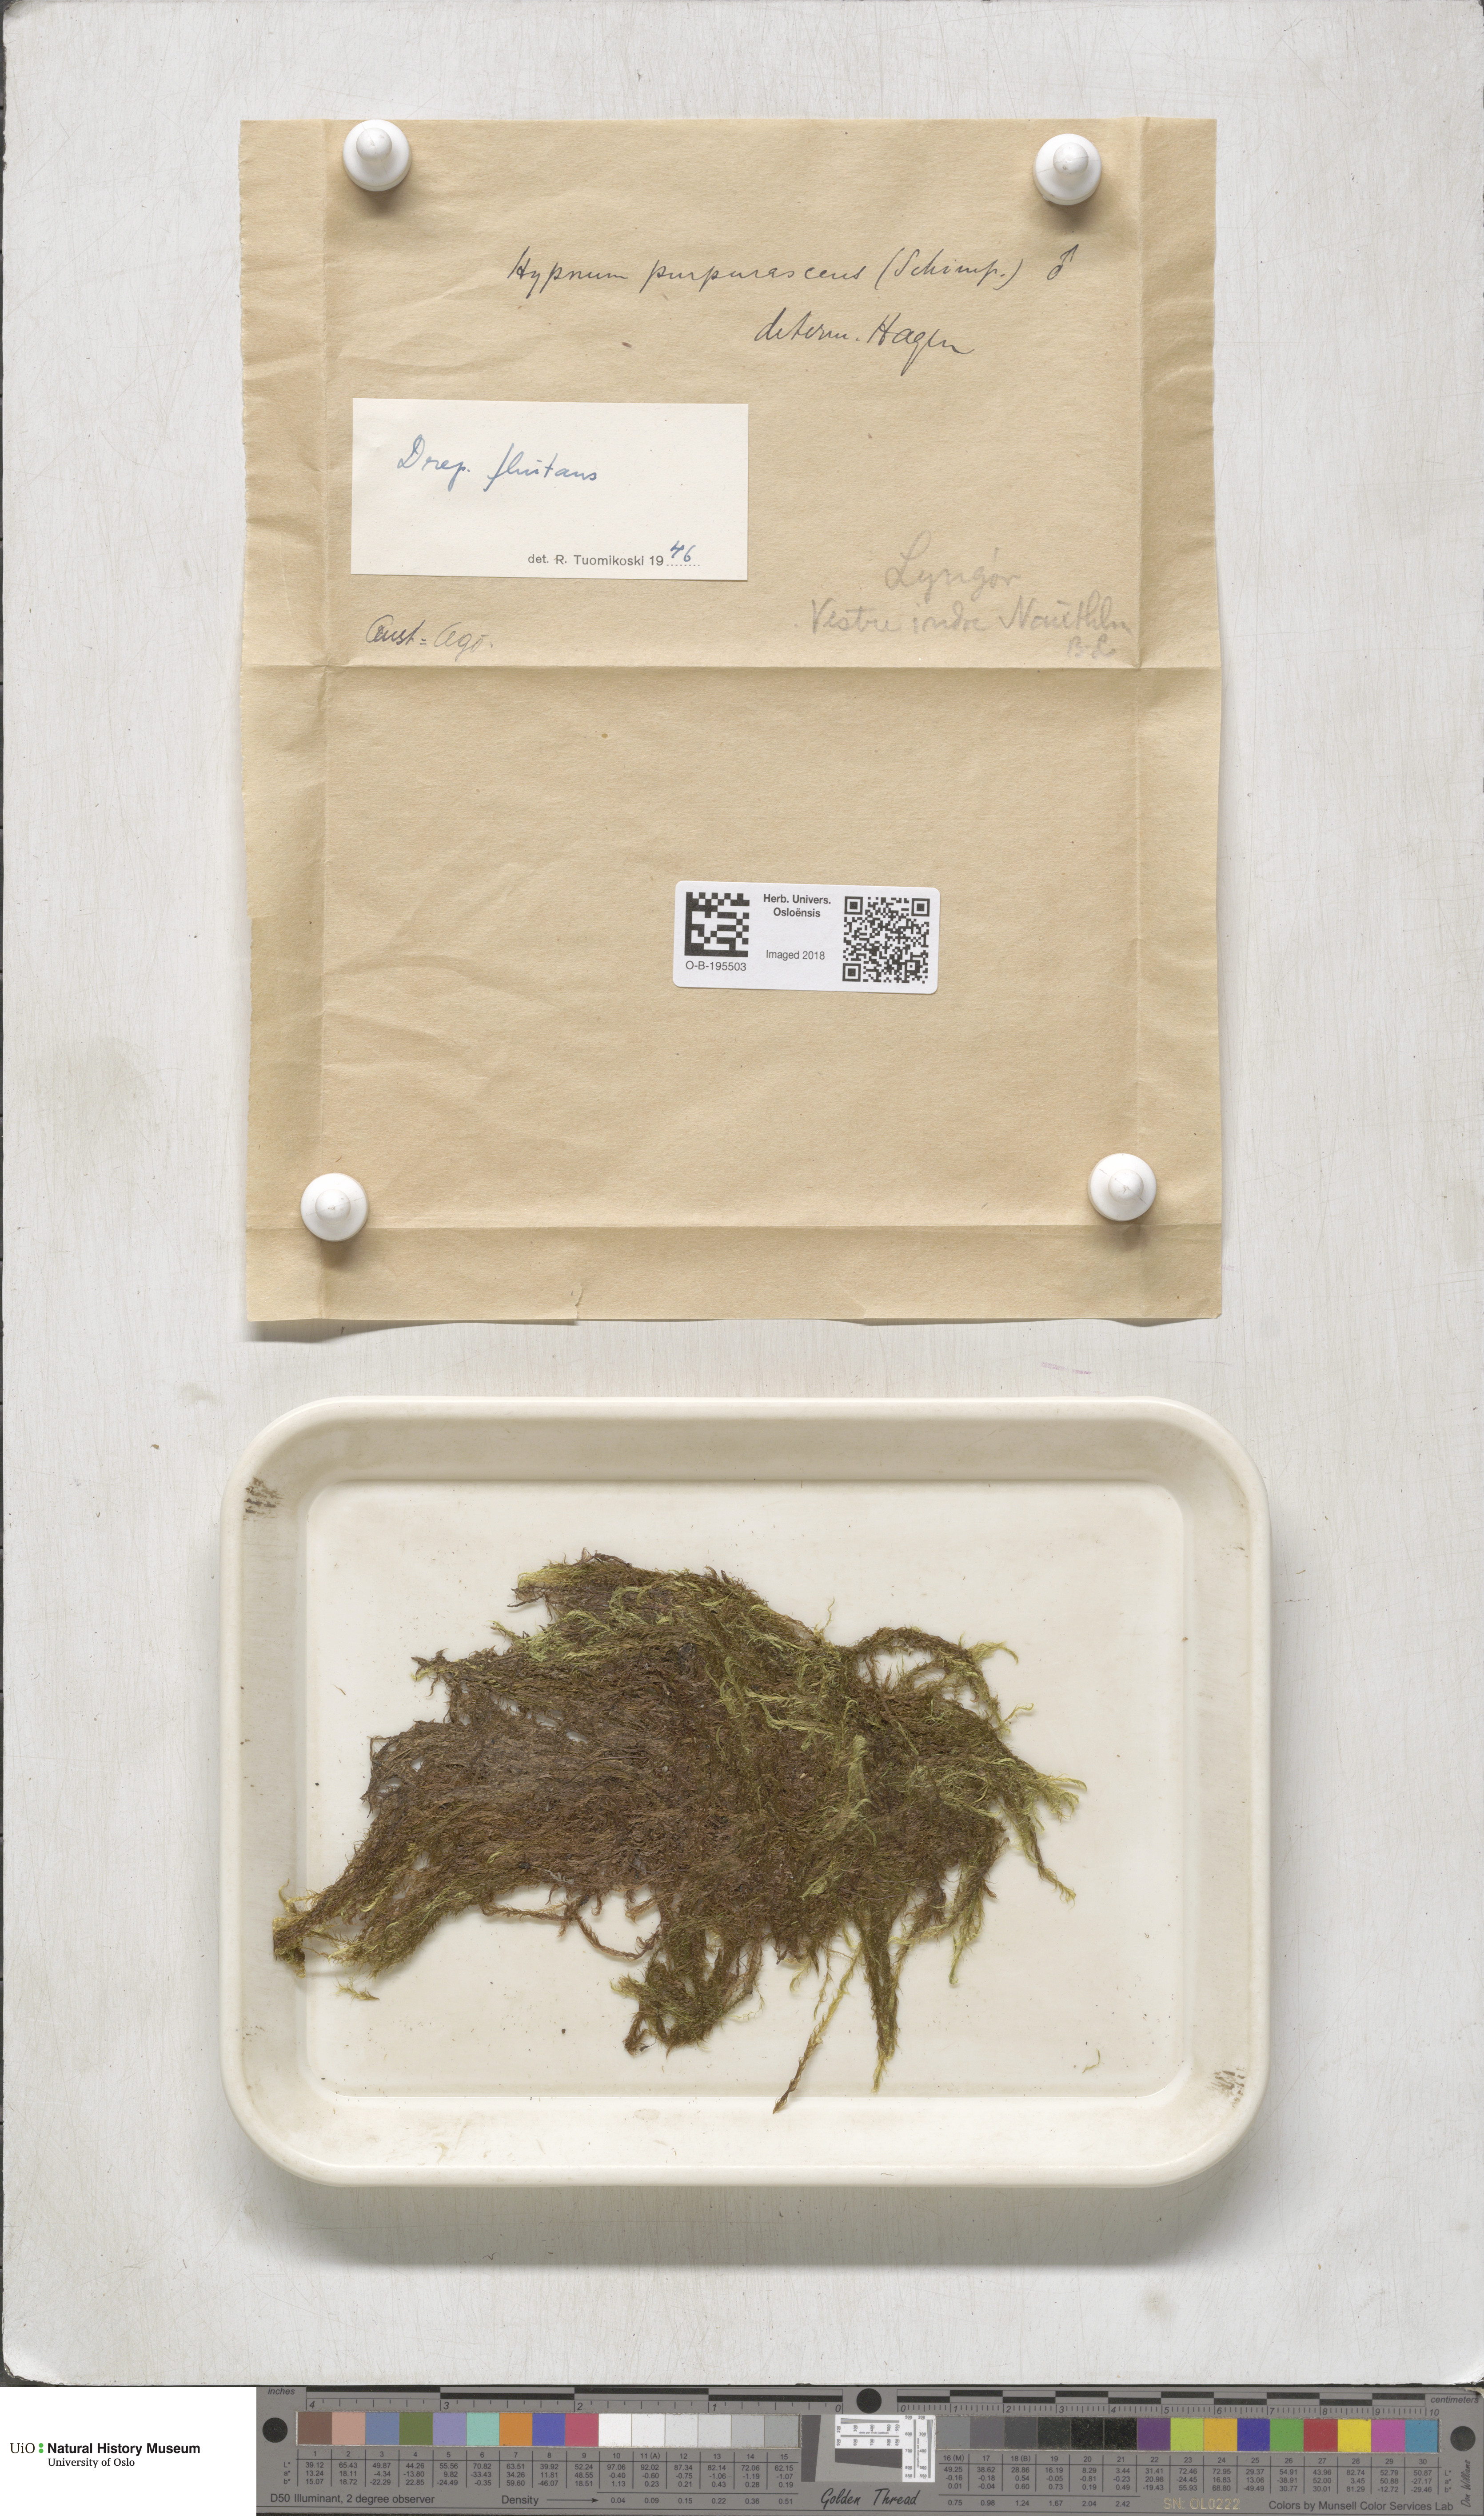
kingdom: Plantae
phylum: Bryophyta
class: Bryopsida
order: Hypnales
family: Calliergonaceae
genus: Warnstorfia
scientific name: Warnstorfia fluitans
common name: Floating hook moss
